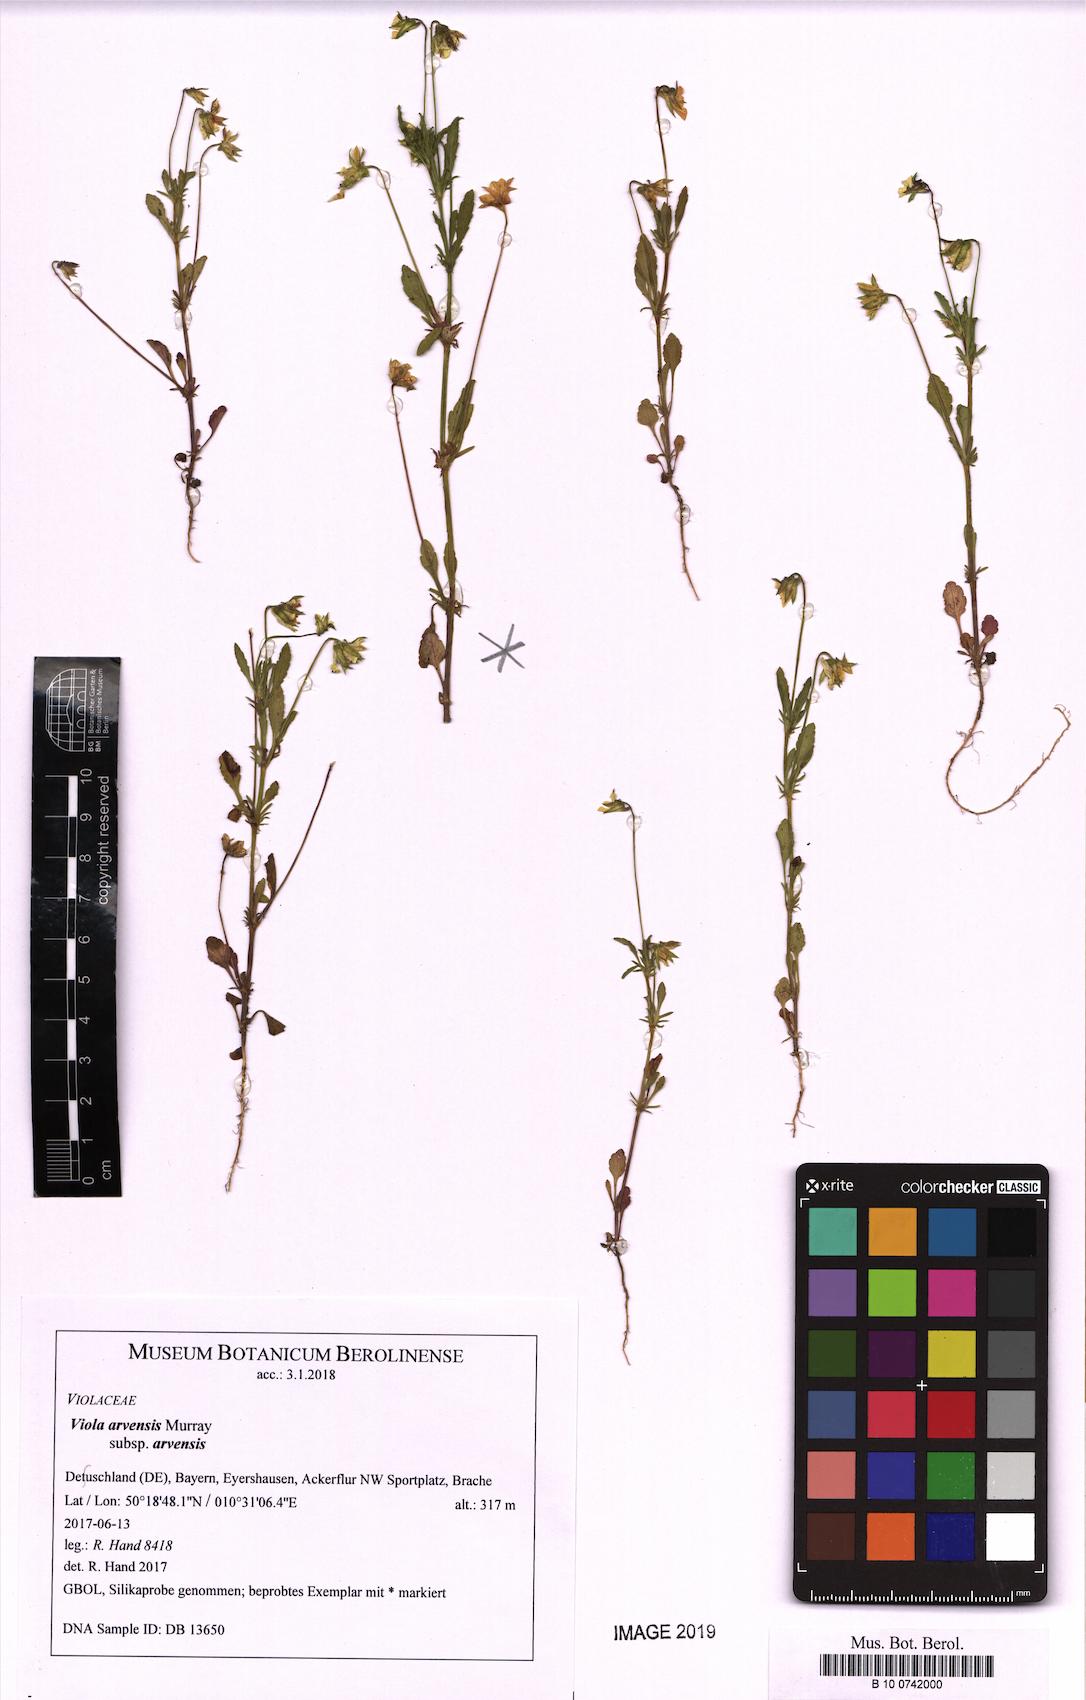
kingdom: Plantae
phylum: Tracheophyta
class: Magnoliopsida
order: Malpighiales
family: Violaceae
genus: Viola
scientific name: Viola arvensis
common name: Field pansy
